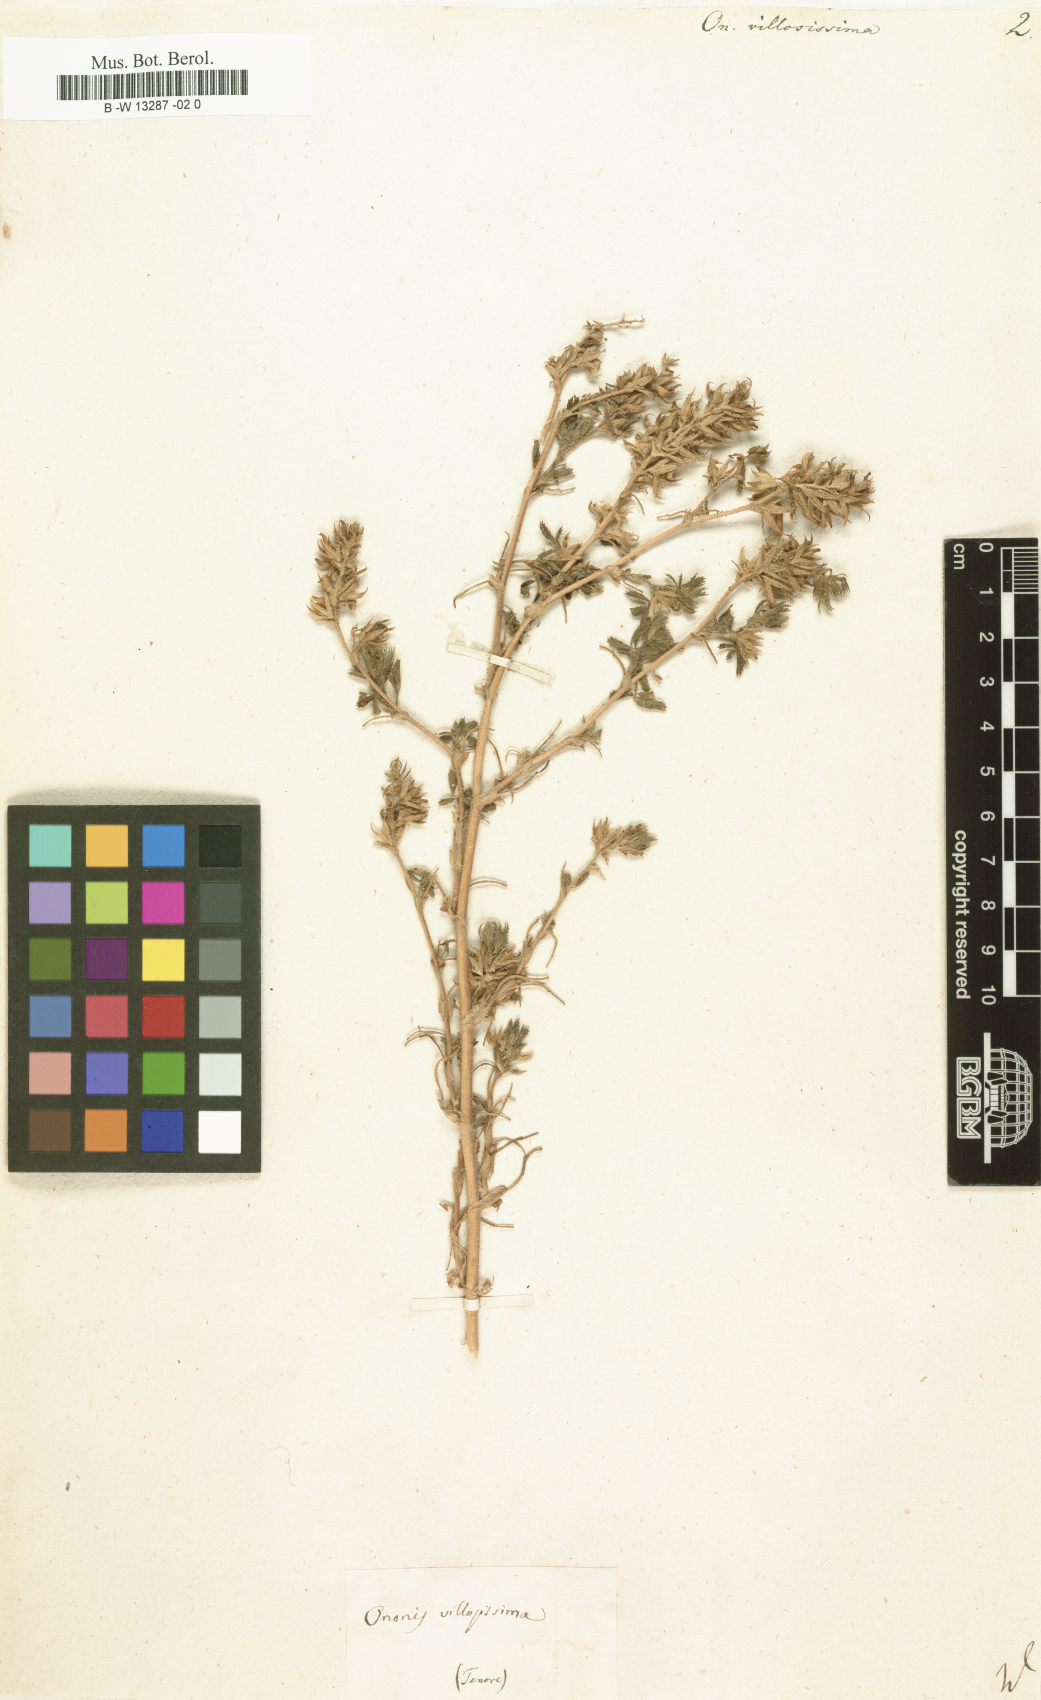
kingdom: Plantae
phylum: Tracheophyta
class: Magnoliopsida
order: Fabales
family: Fabaceae
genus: Ononis
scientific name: Ononis villosissima
